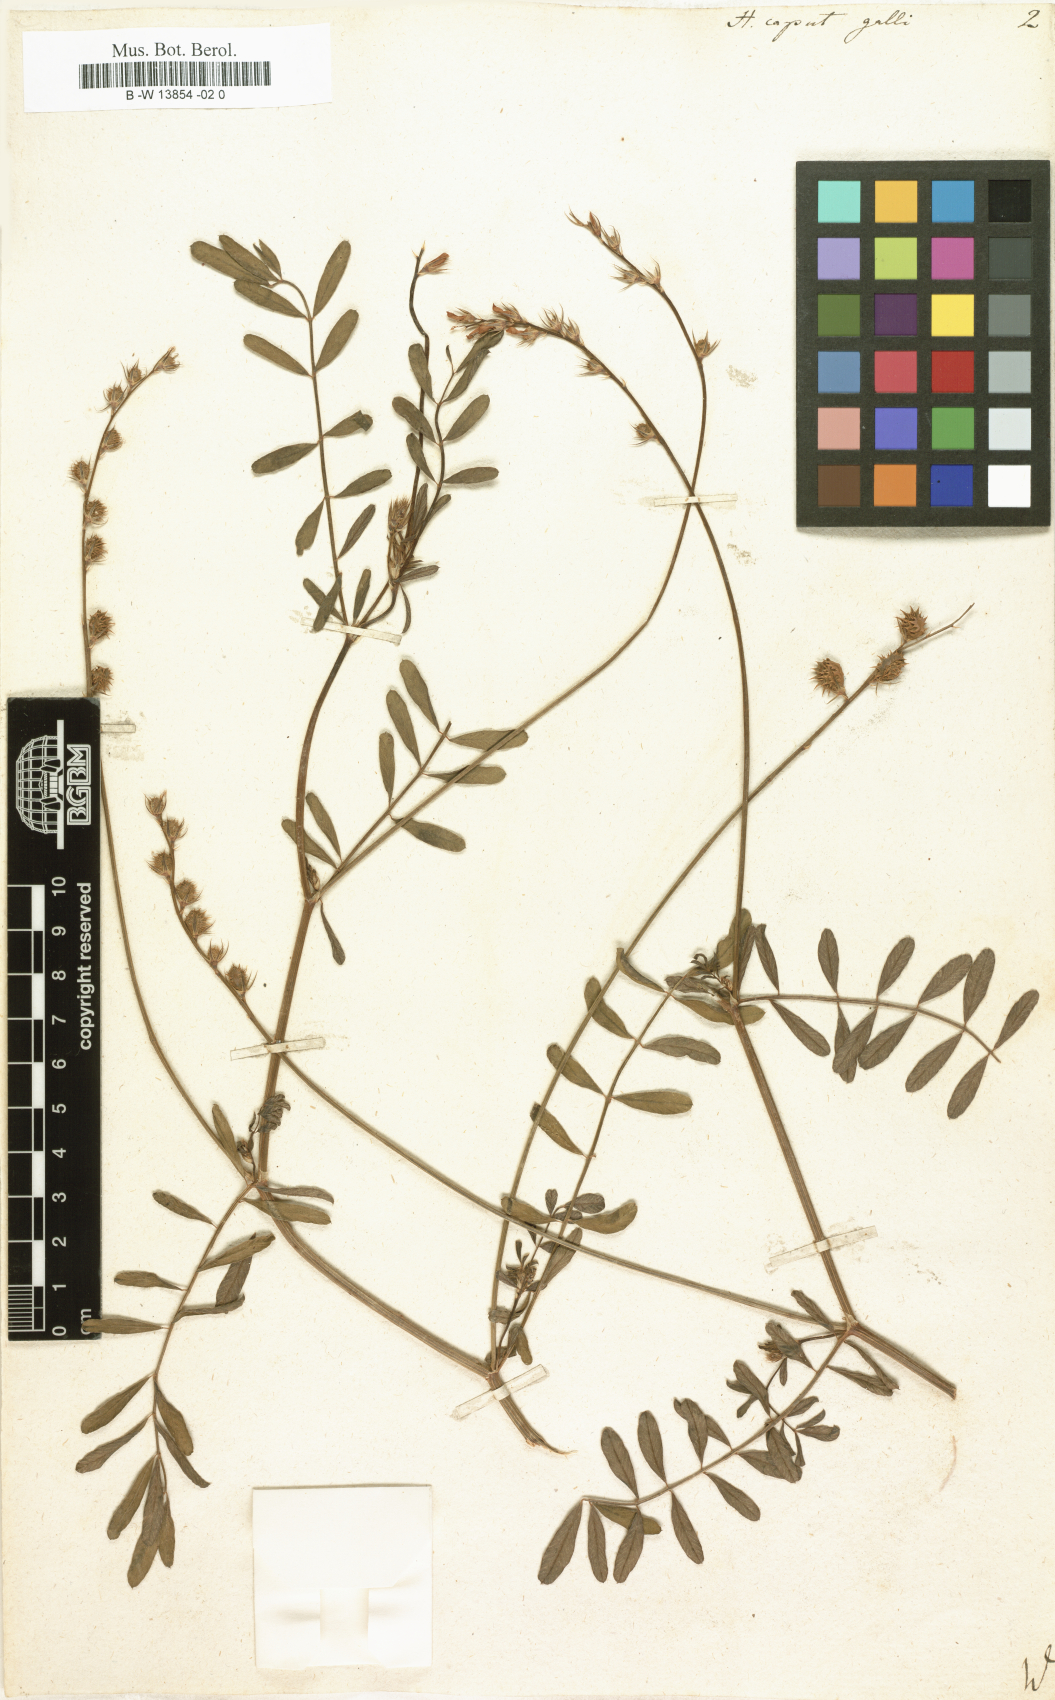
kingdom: Plantae
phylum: Tracheophyta
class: Magnoliopsida
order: Fabales
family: Fabaceae
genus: Onobrychis
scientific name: Onobrychis caput-galli
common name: Cockscomb sainfoin
